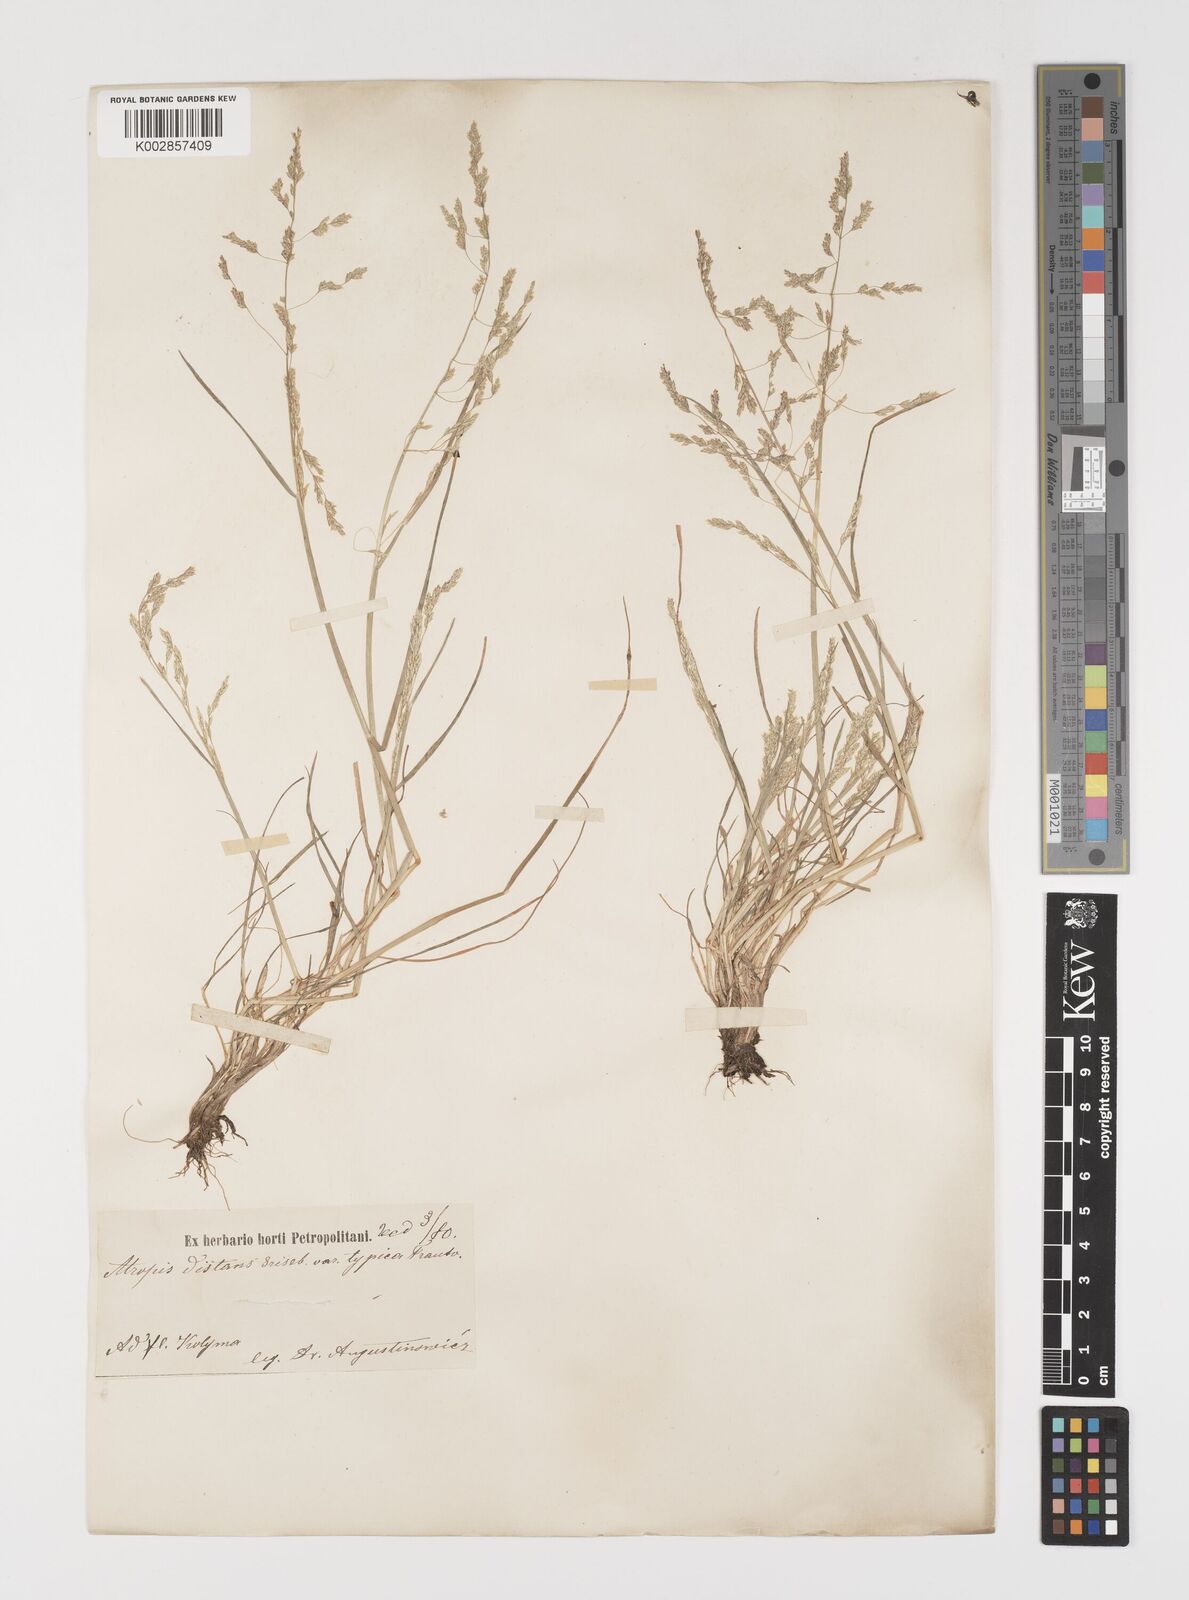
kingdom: Plantae
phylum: Tracheophyta
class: Liliopsida
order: Poales
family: Poaceae
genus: Puccinellia
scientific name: Puccinellia distans
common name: Weeping alkaligrass
